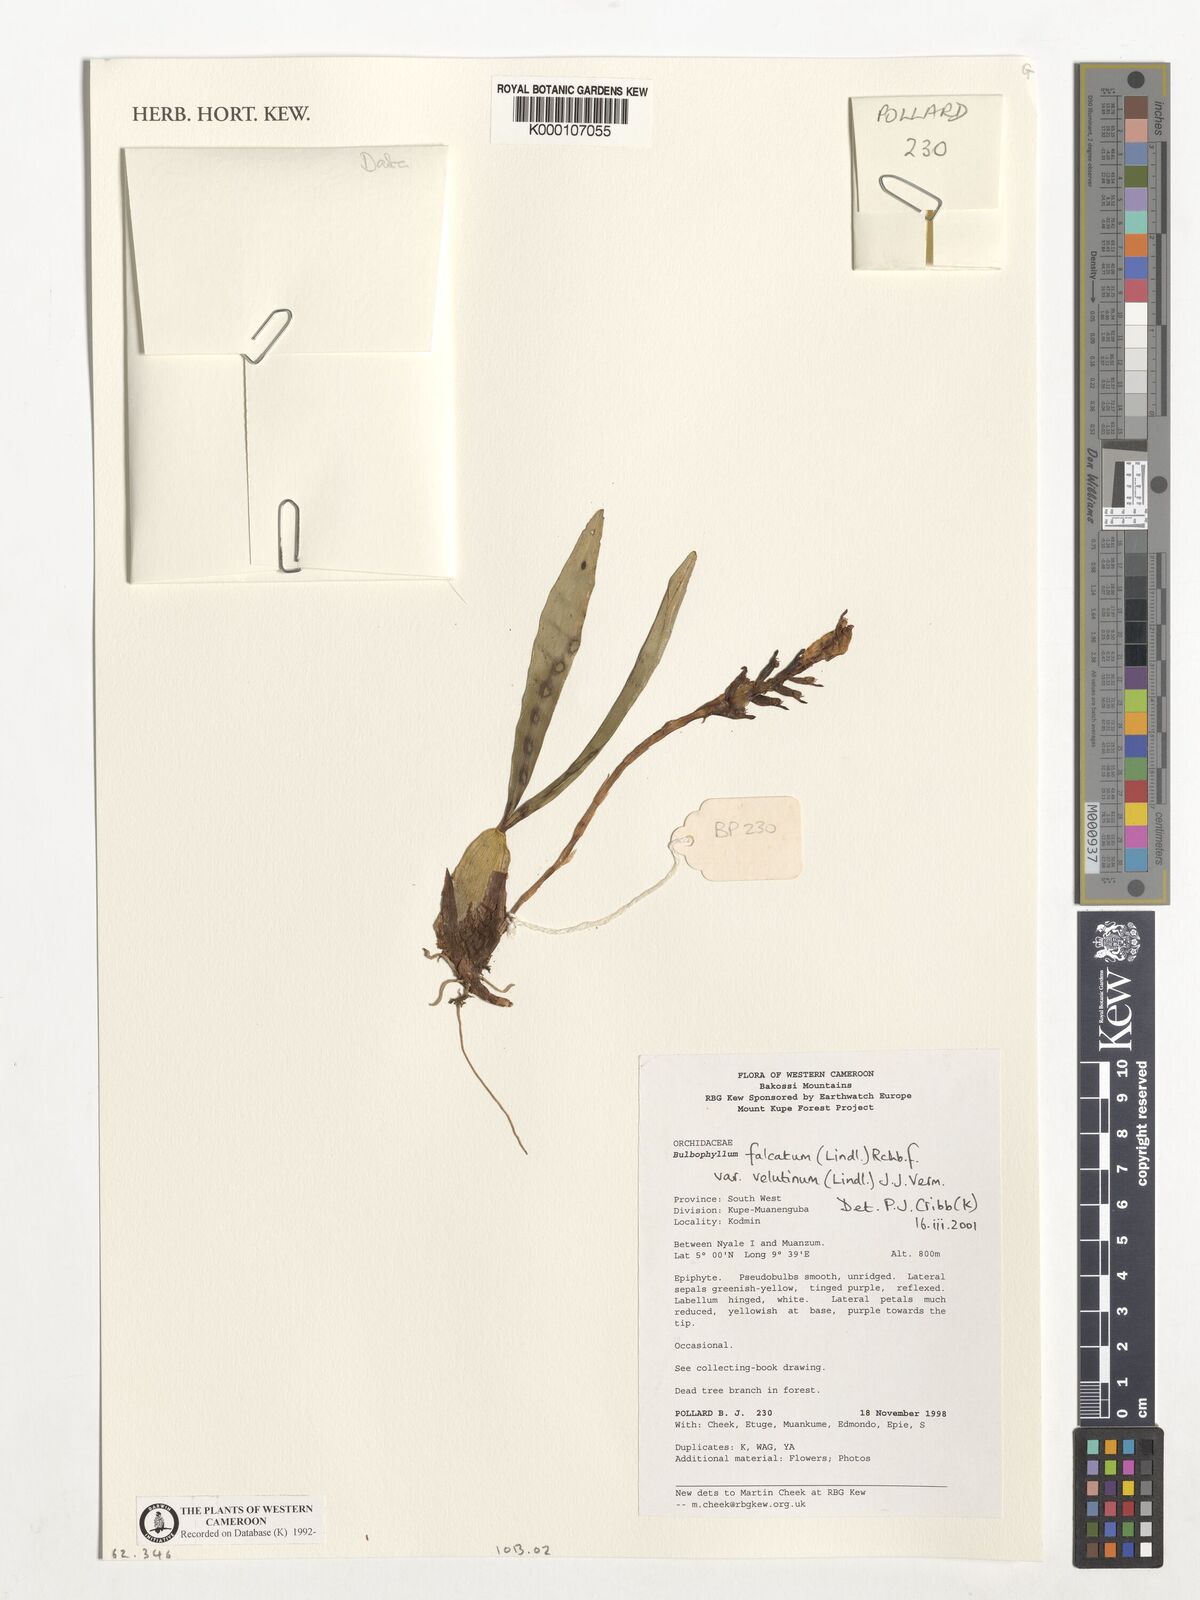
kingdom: Plantae
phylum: Tracheophyta
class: Liliopsida
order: Asparagales
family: Orchidaceae
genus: Bulbophyllum
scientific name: Bulbophyllum falcatum
